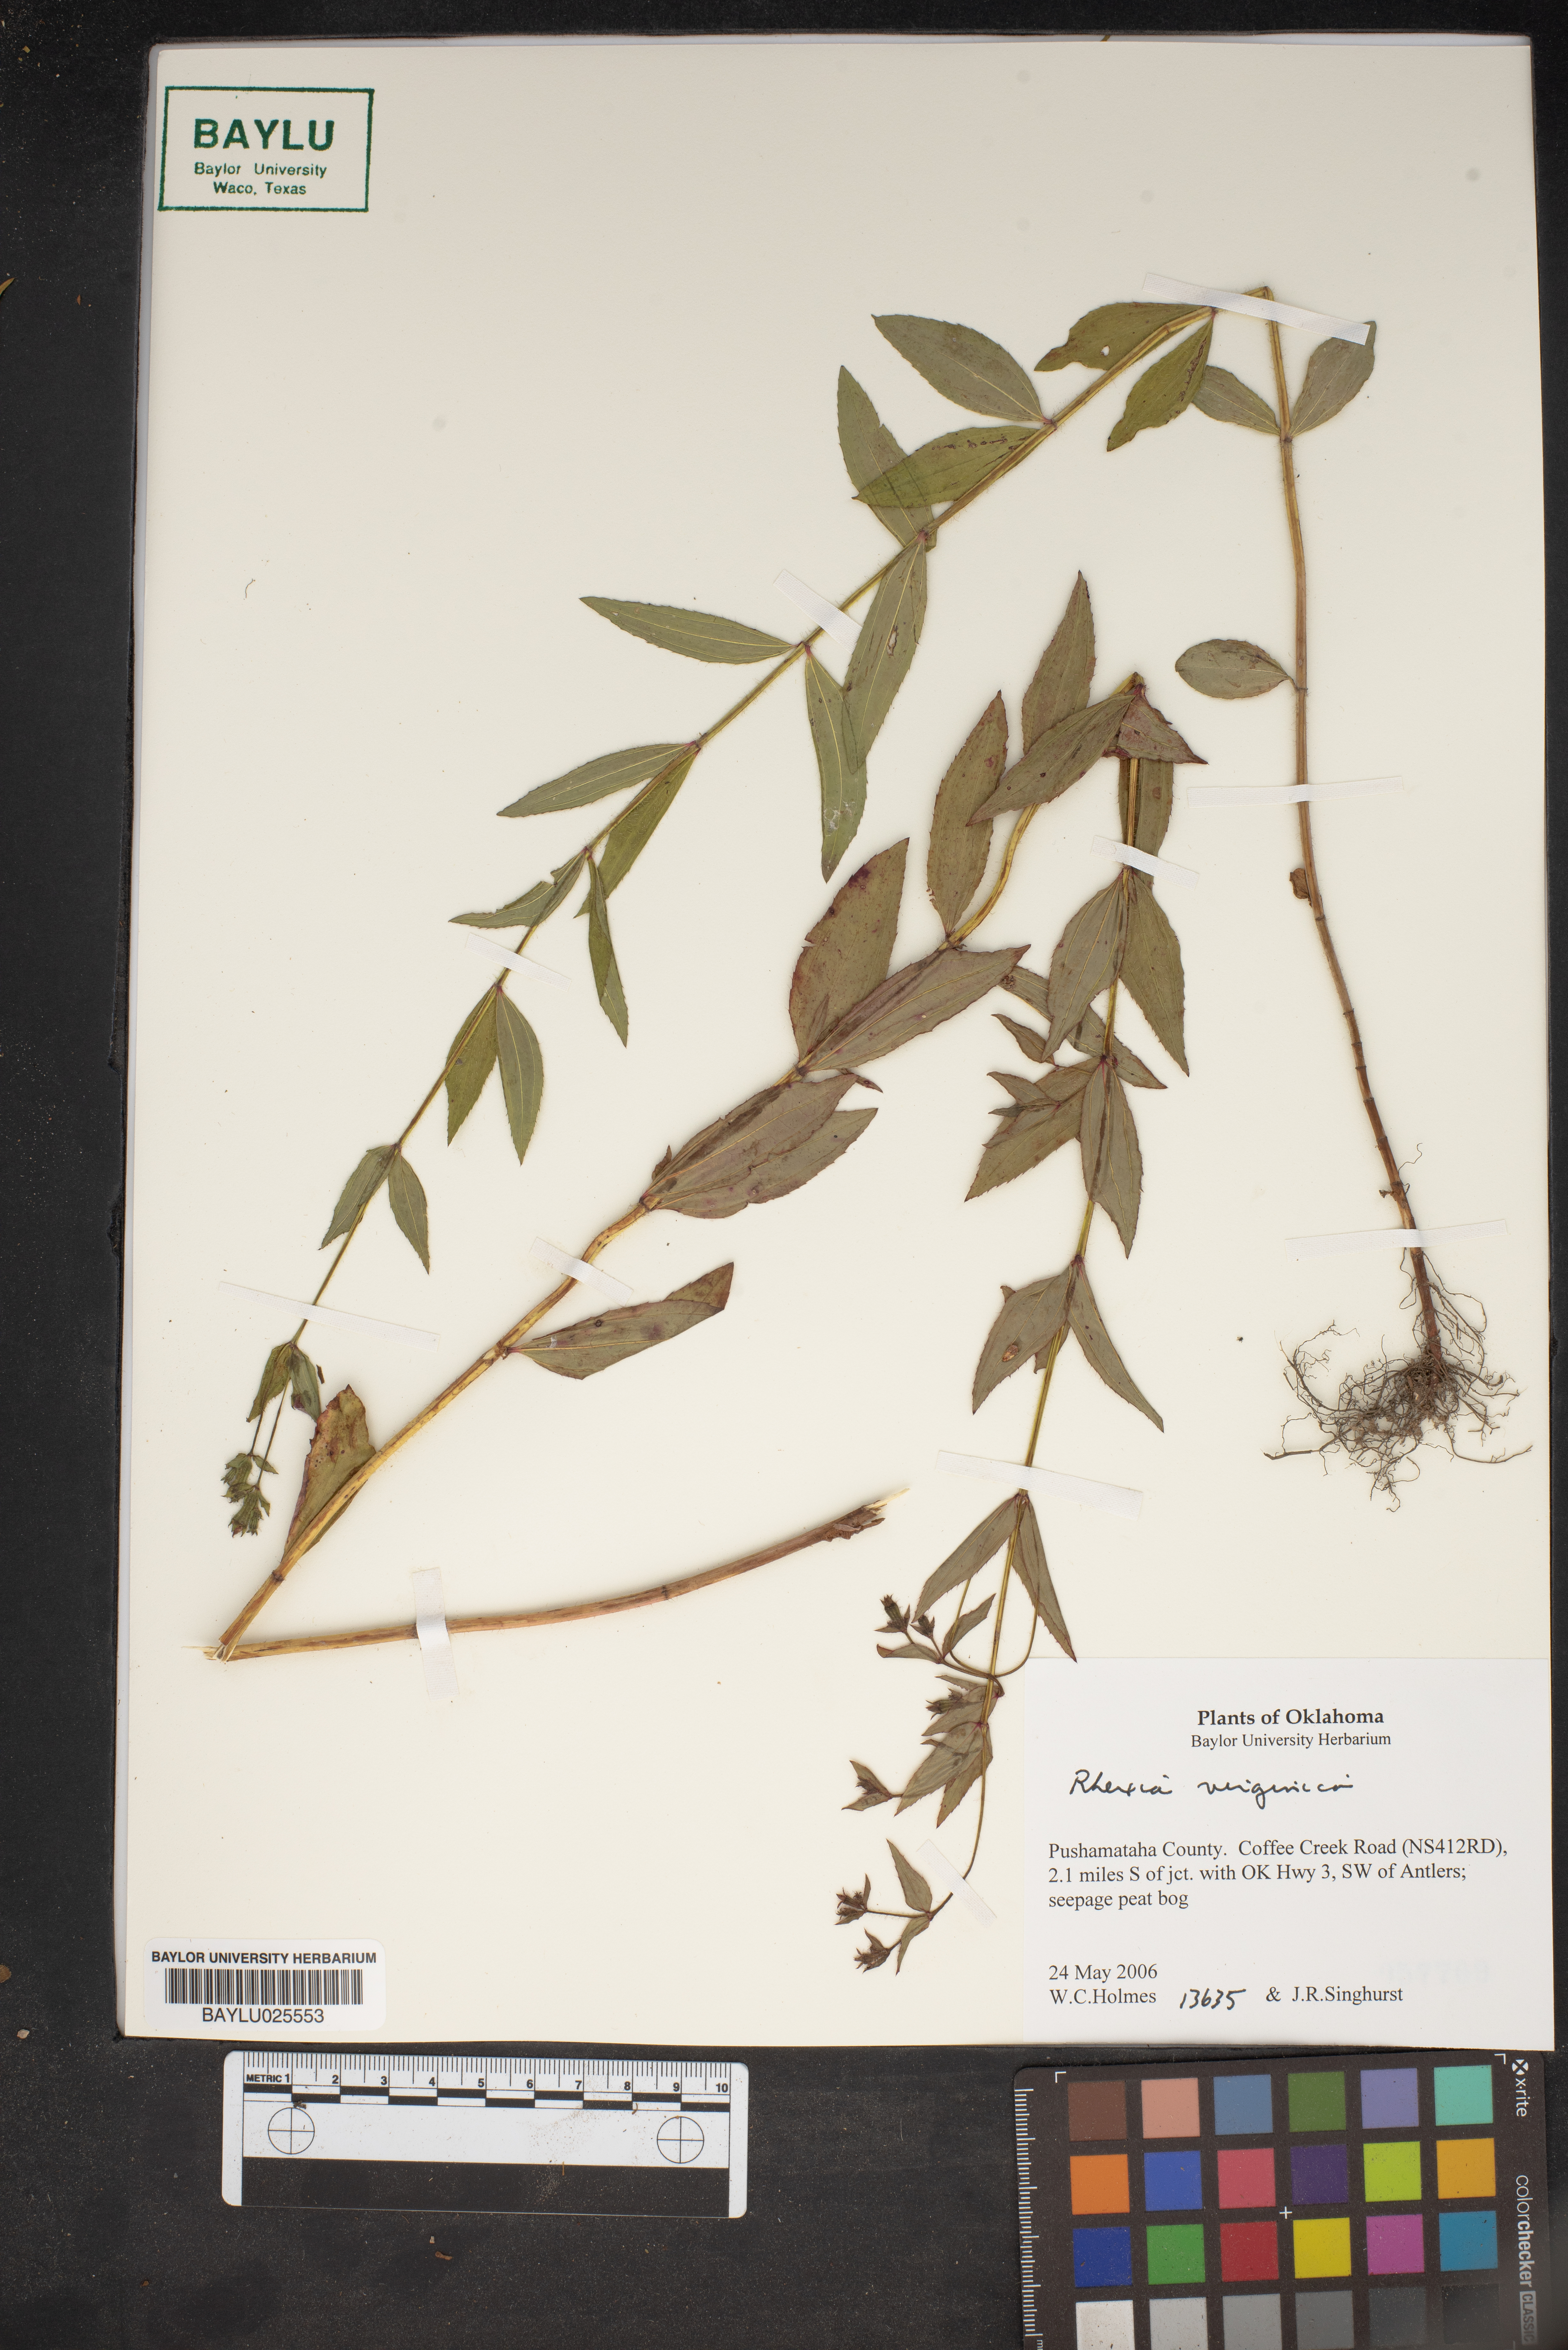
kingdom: Plantae
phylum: Tracheophyta
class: Magnoliopsida
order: Myrtales
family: Melastomataceae
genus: Rhexia
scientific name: Rhexia virginica
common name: Common meadow beauty
